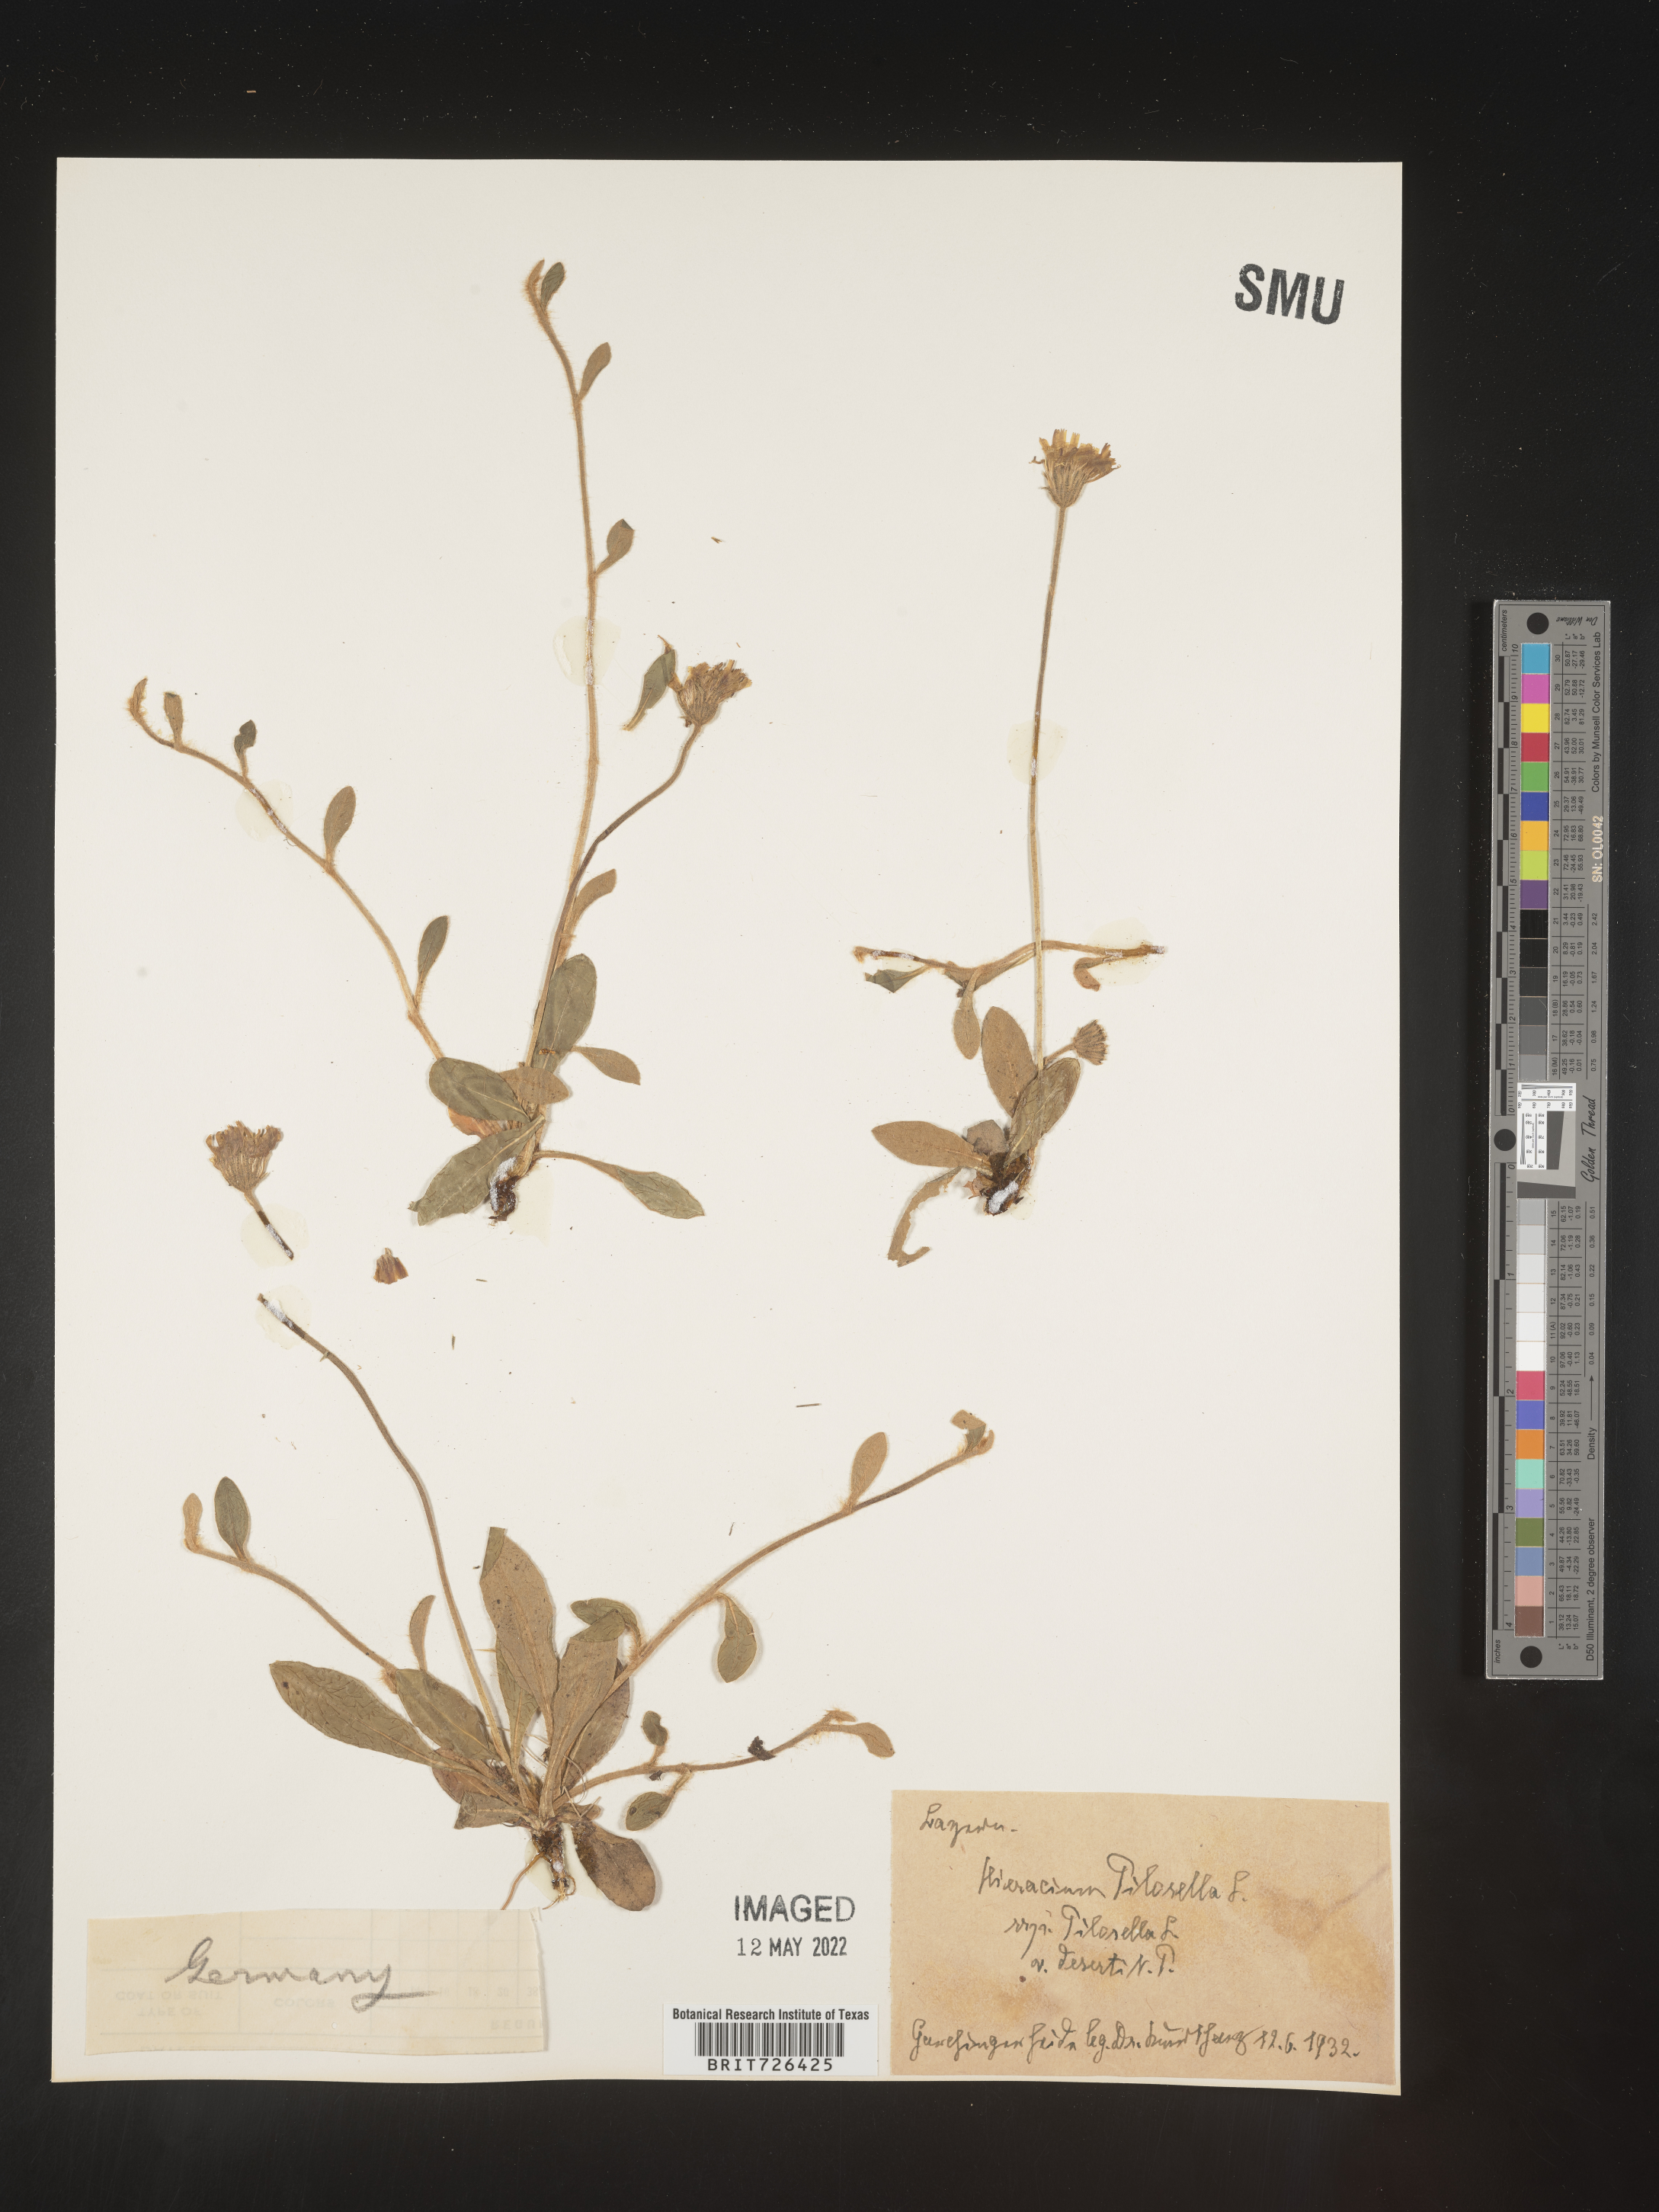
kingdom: Plantae
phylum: Tracheophyta
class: Magnoliopsida
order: Asterales
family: Asteraceae
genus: Hieracium
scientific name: Hieracium
